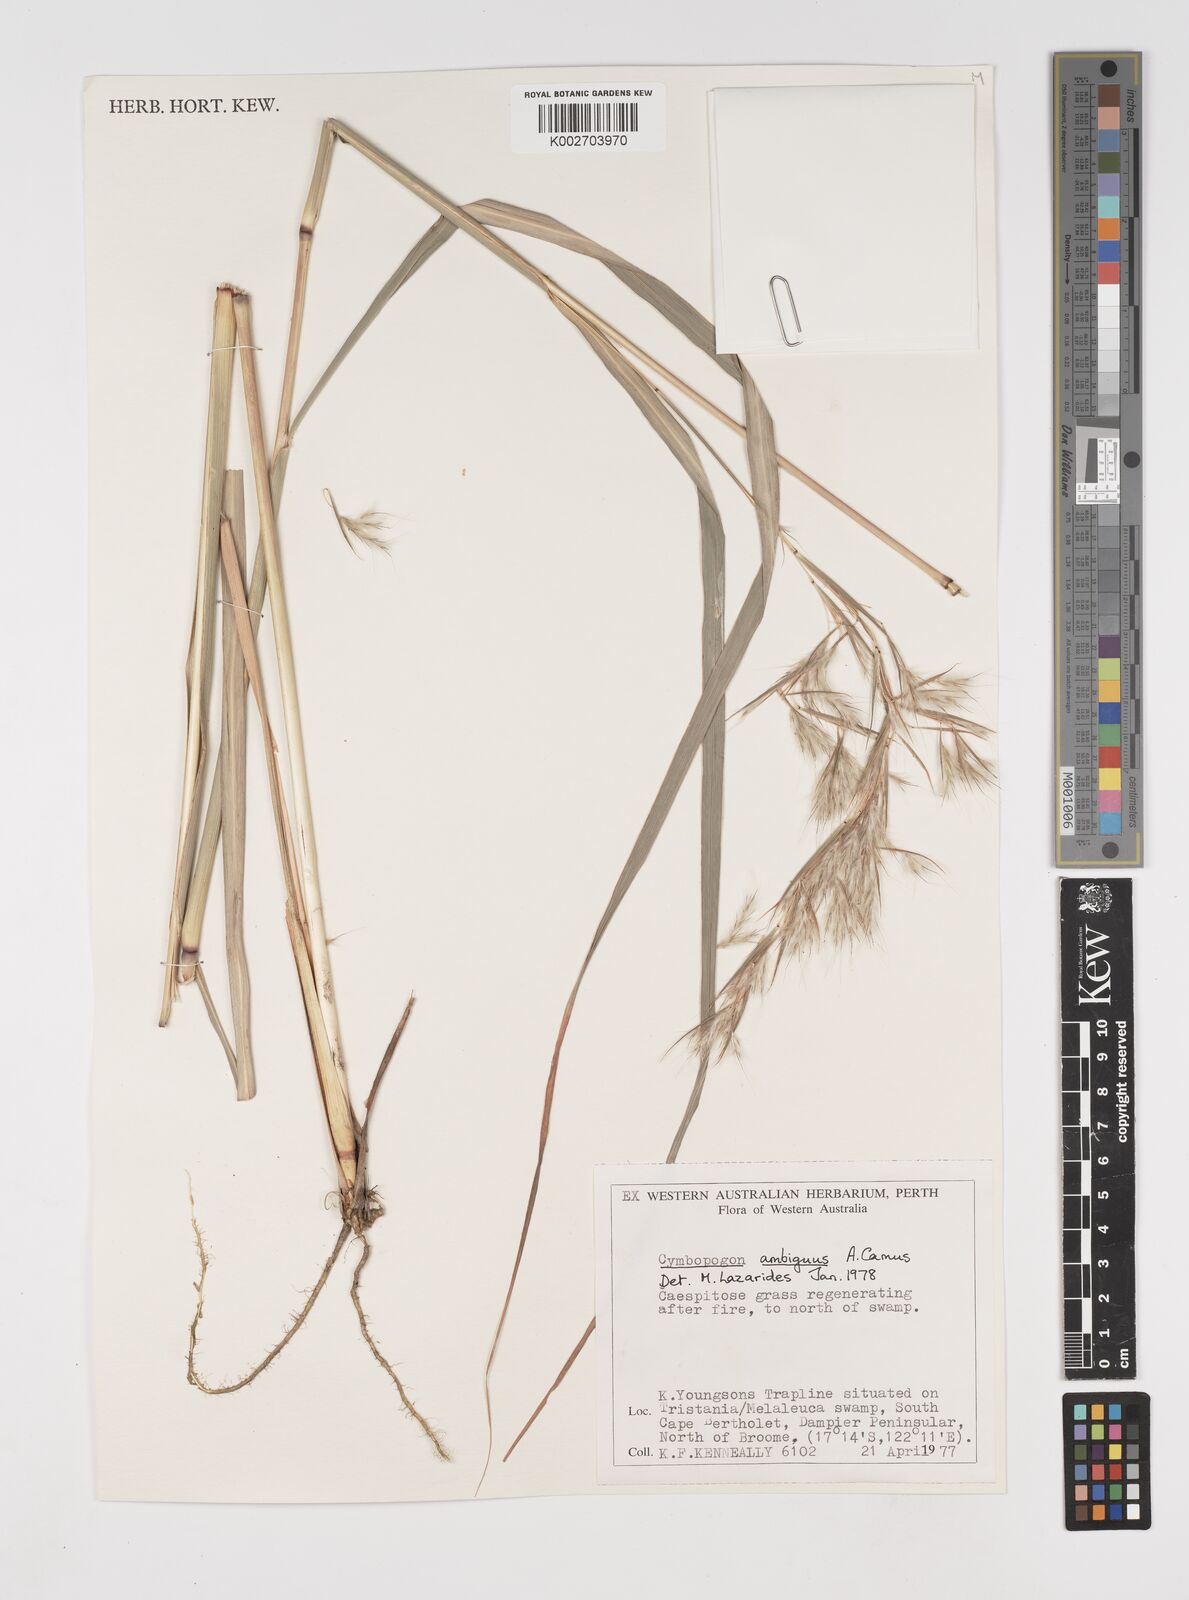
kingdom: Plantae
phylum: Tracheophyta
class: Liliopsida
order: Poales
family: Poaceae
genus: Cymbopogon
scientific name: Cymbopogon ambiguus
